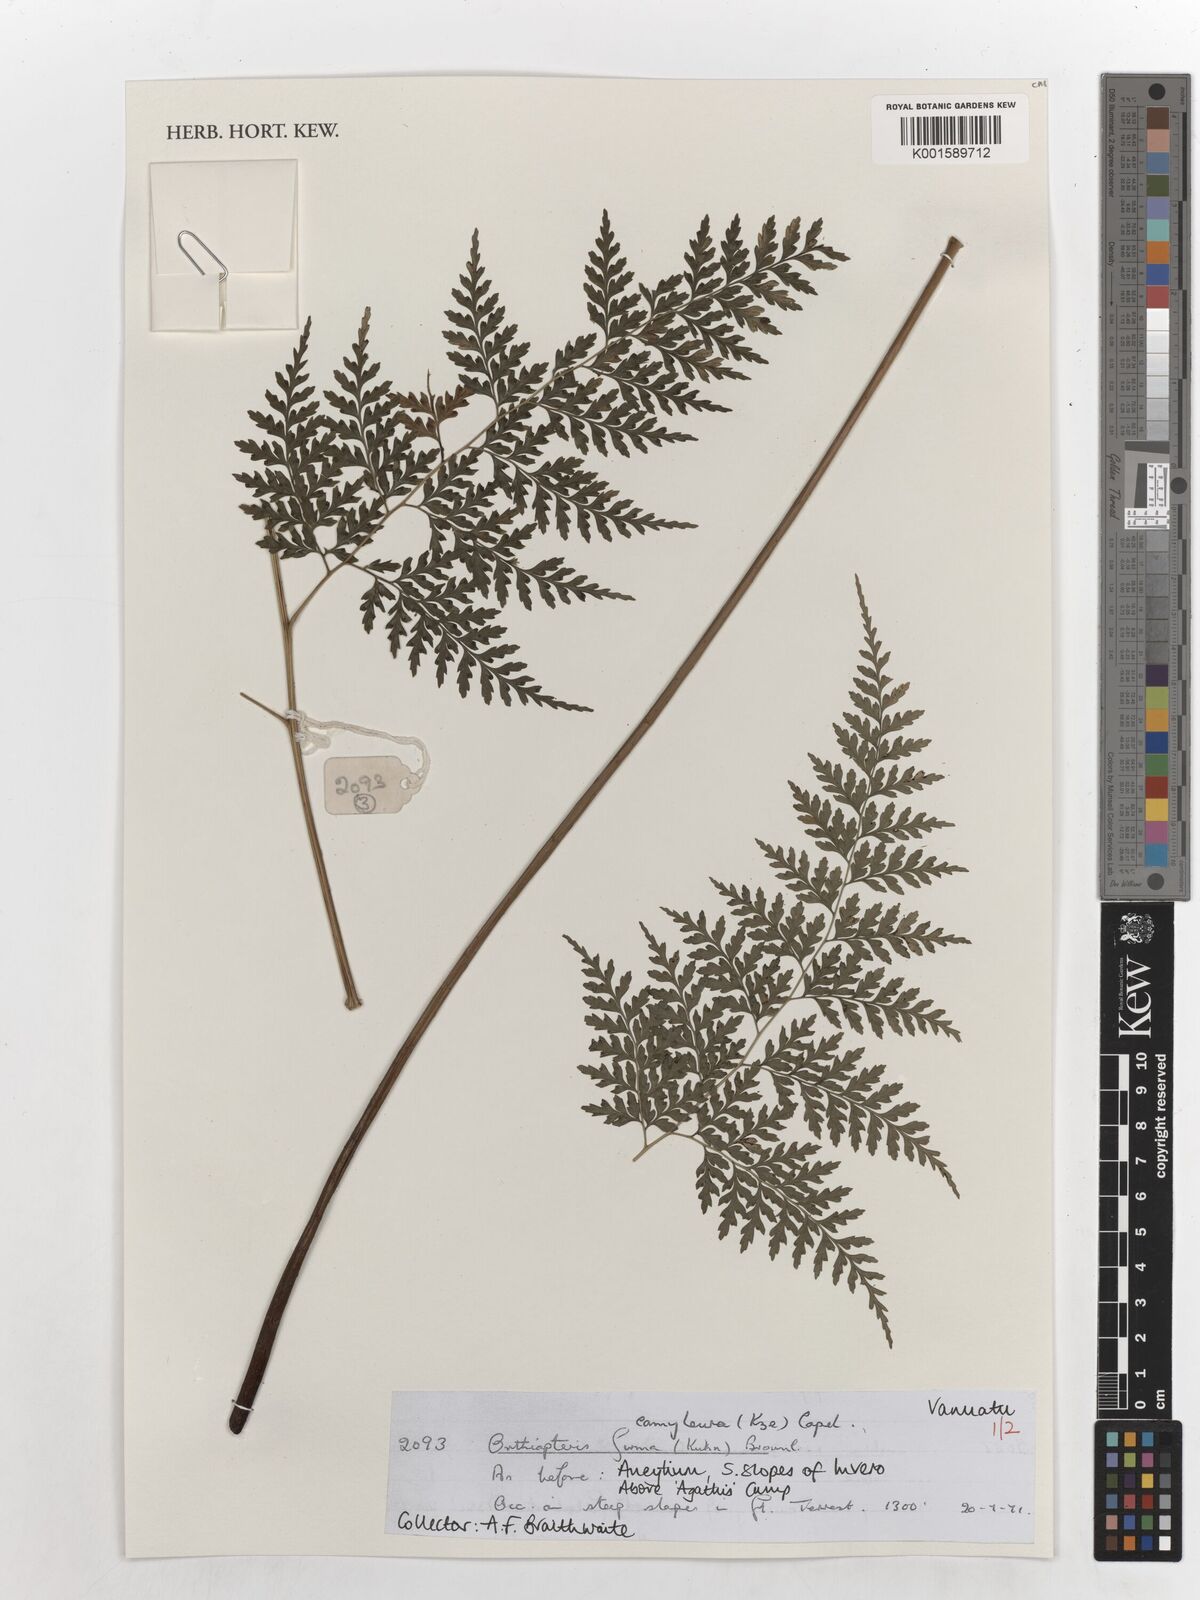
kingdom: Plantae
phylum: Tracheophyta
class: Polypodiopsida
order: Polypodiales
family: Saccolomataceae
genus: Orthiopteris
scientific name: Orthiopteris firma
